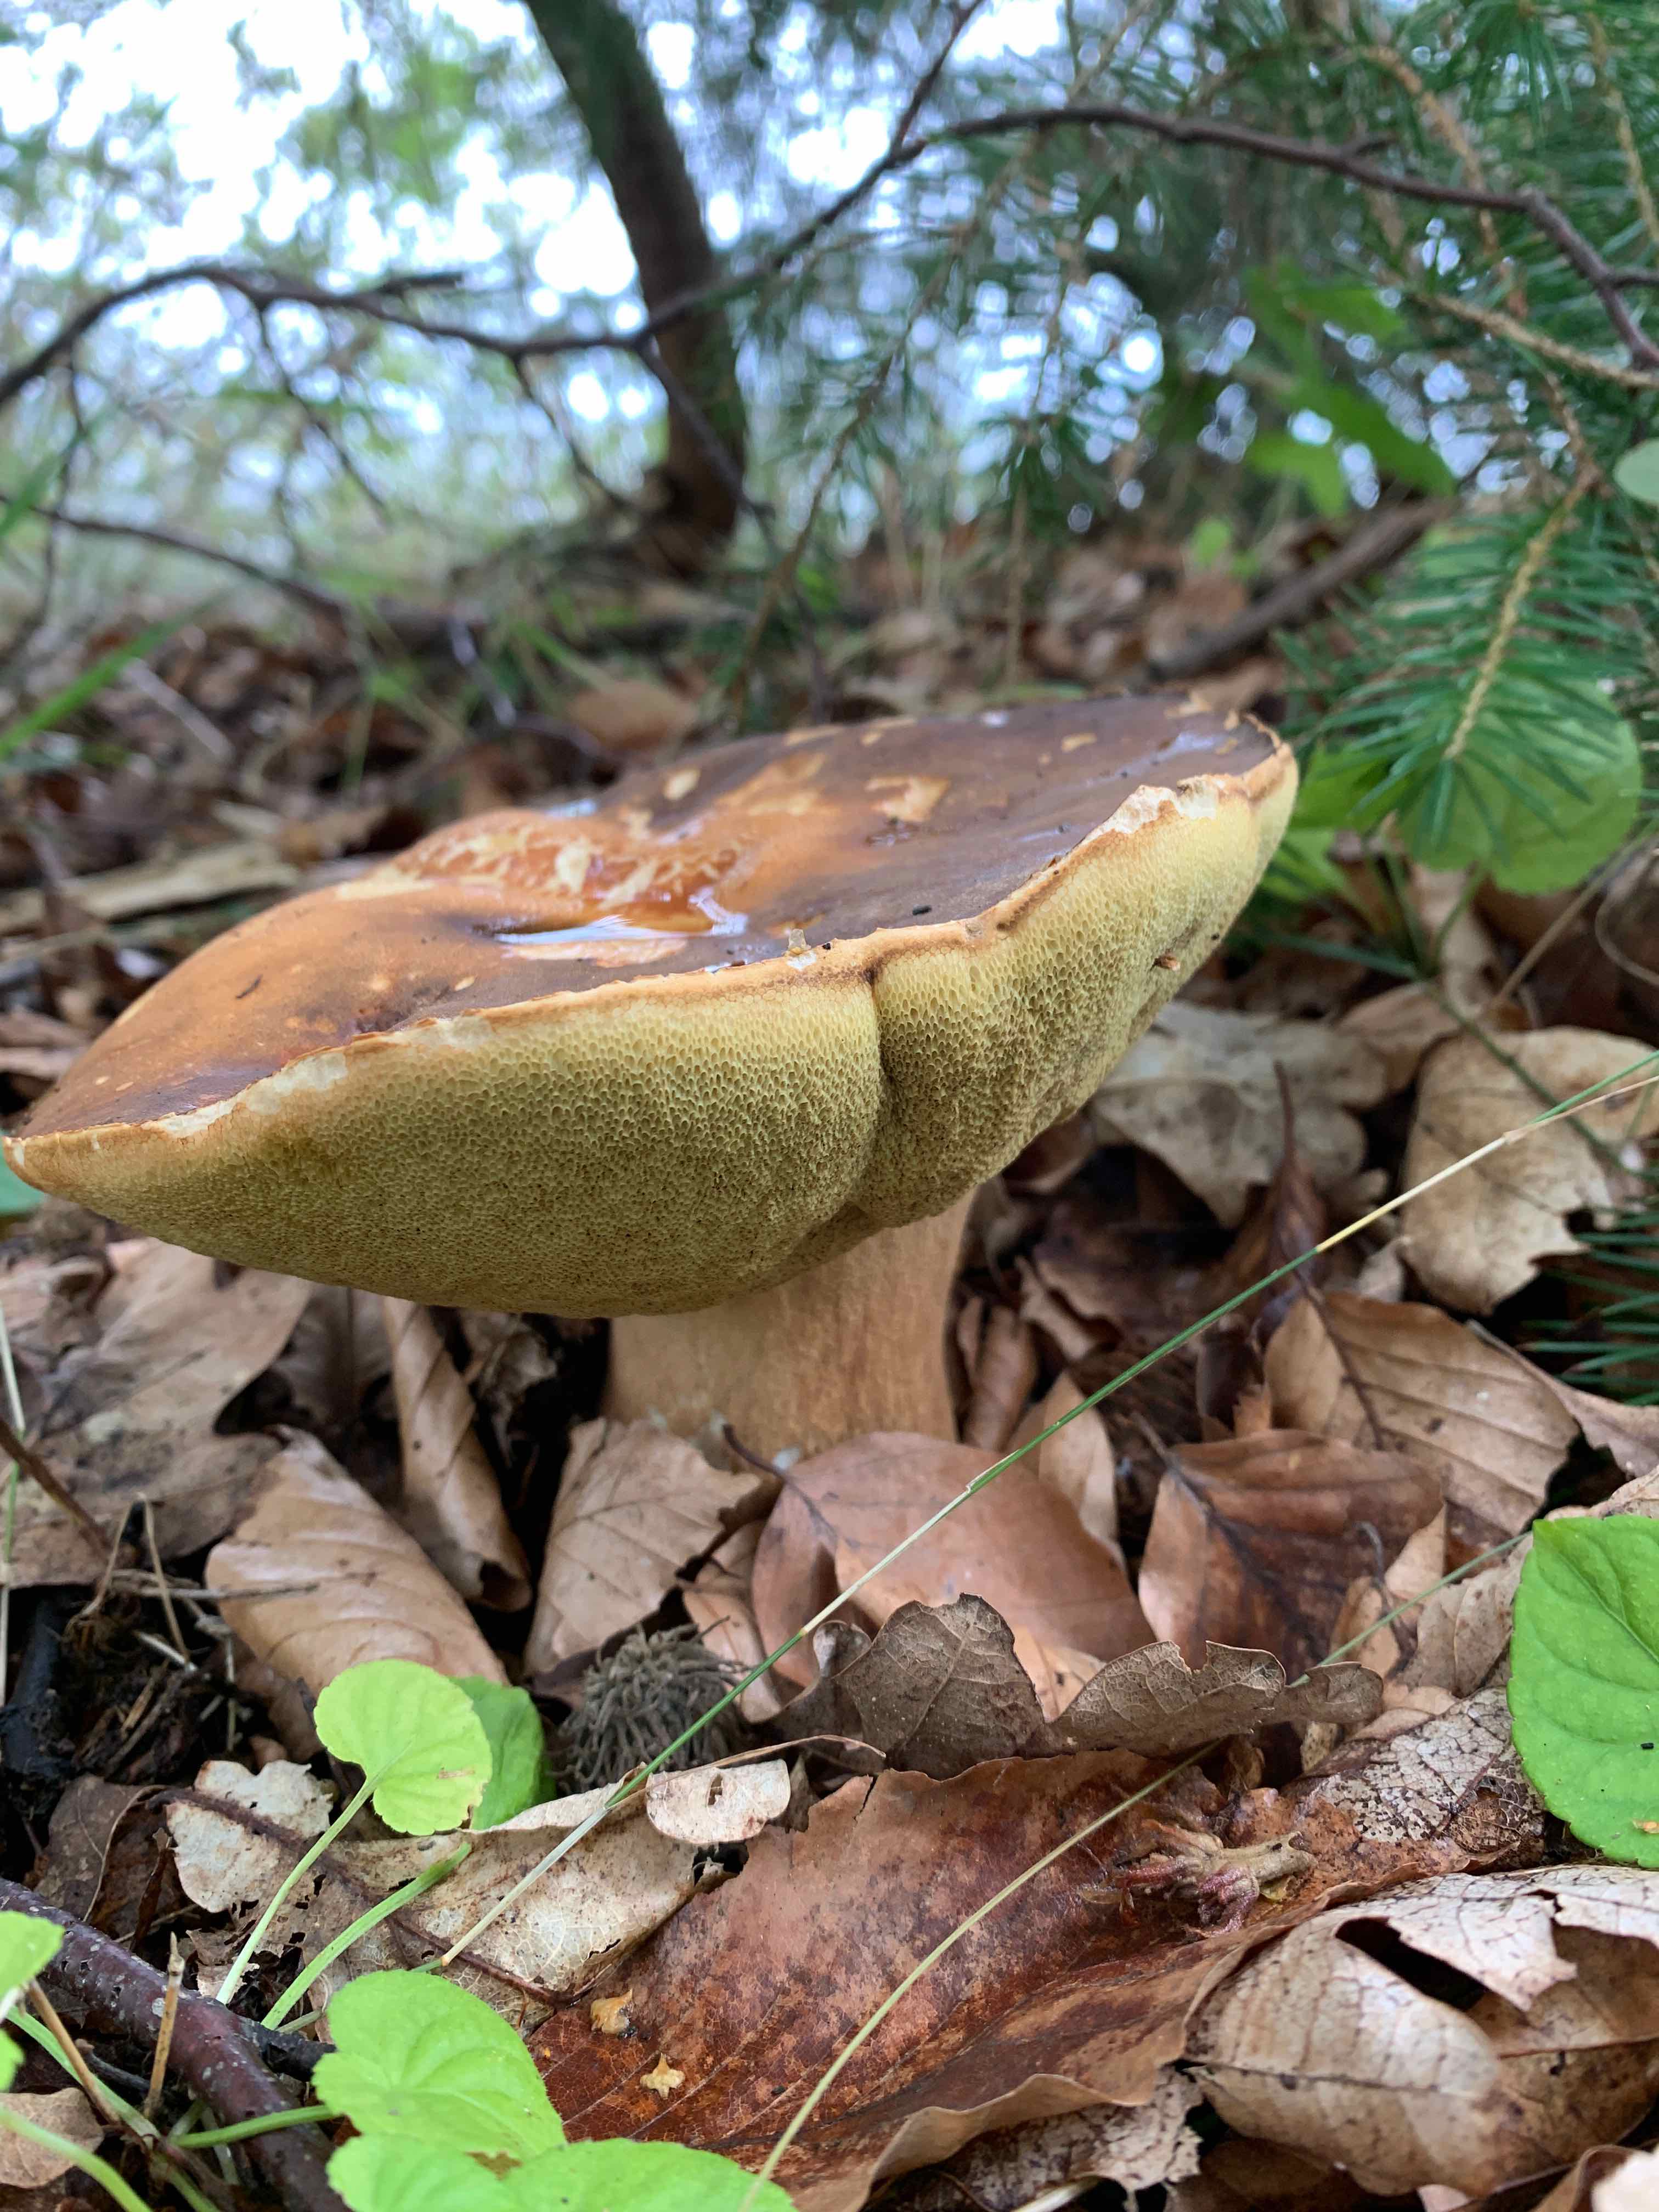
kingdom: Fungi
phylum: Basidiomycota
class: Agaricomycetes
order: Boletales
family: Boletaceae
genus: Boletus
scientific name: Boletus edulis
